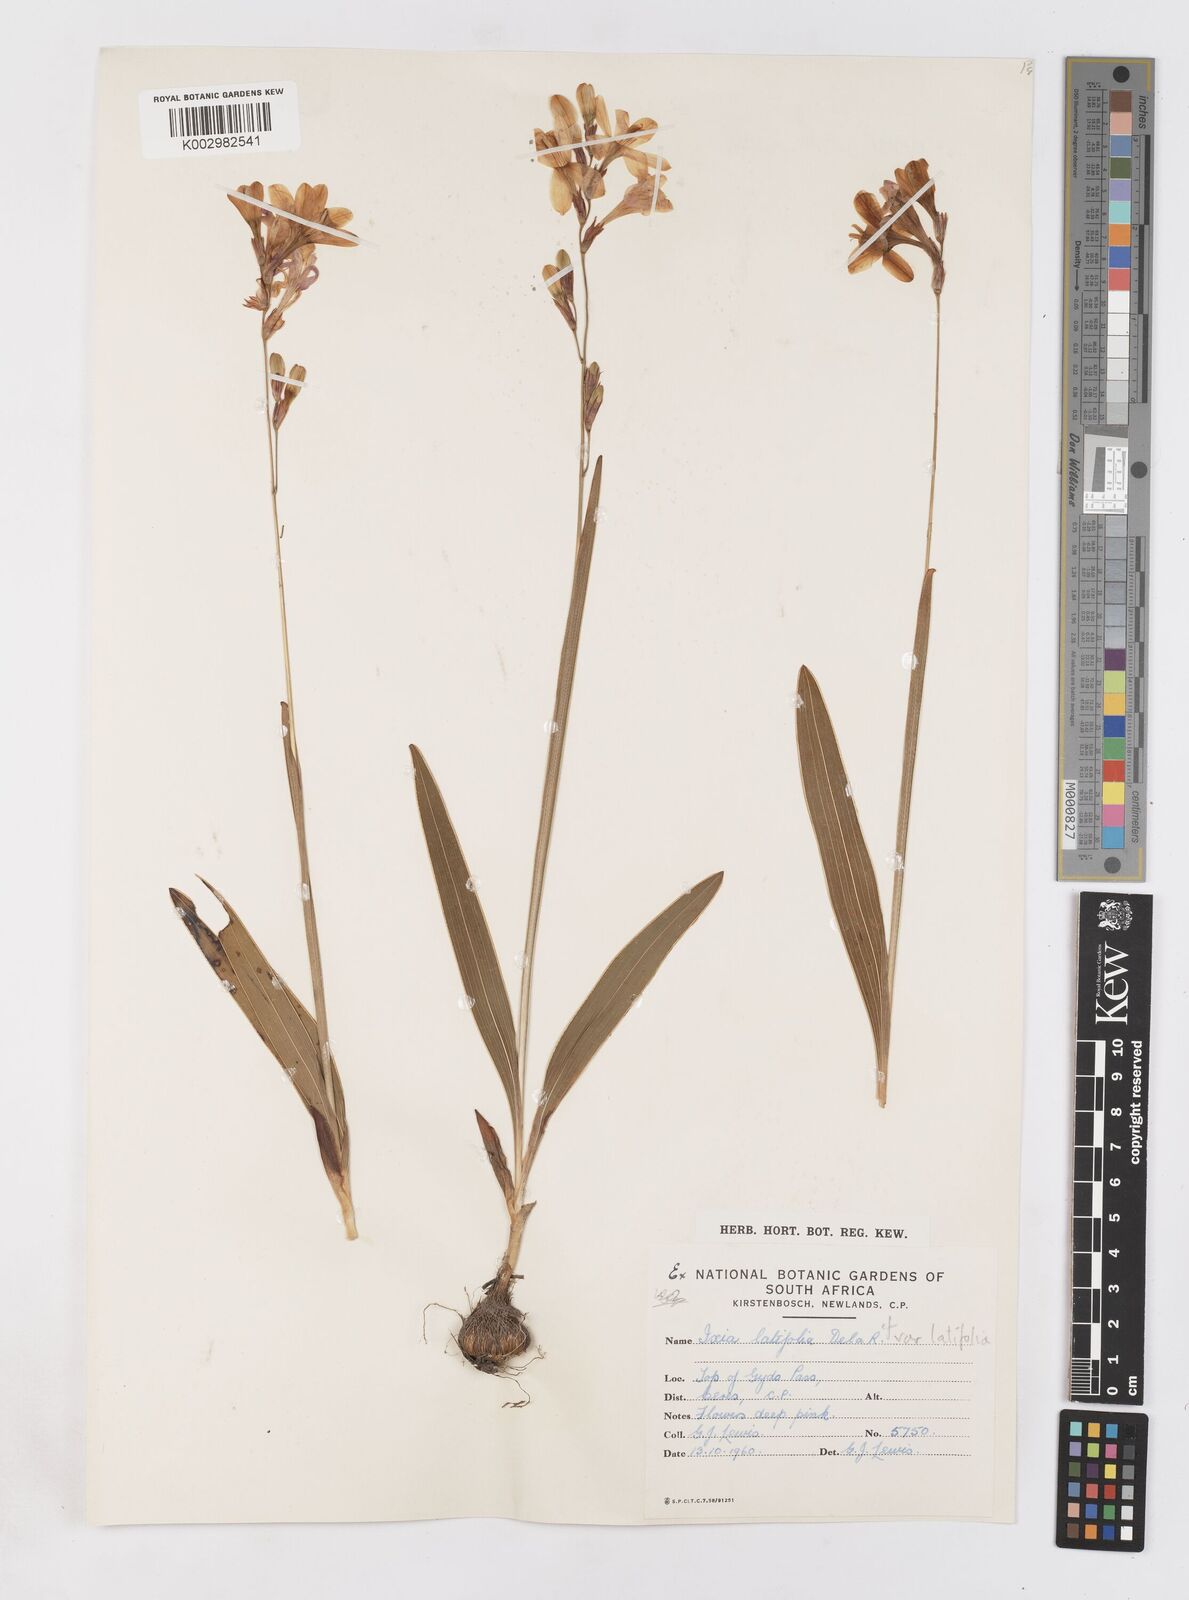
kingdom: Plantae
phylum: Tracheophyta
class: Liliopsida
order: Asparagales
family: Iridaceae
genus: Ixia
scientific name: Ixia latifolia
